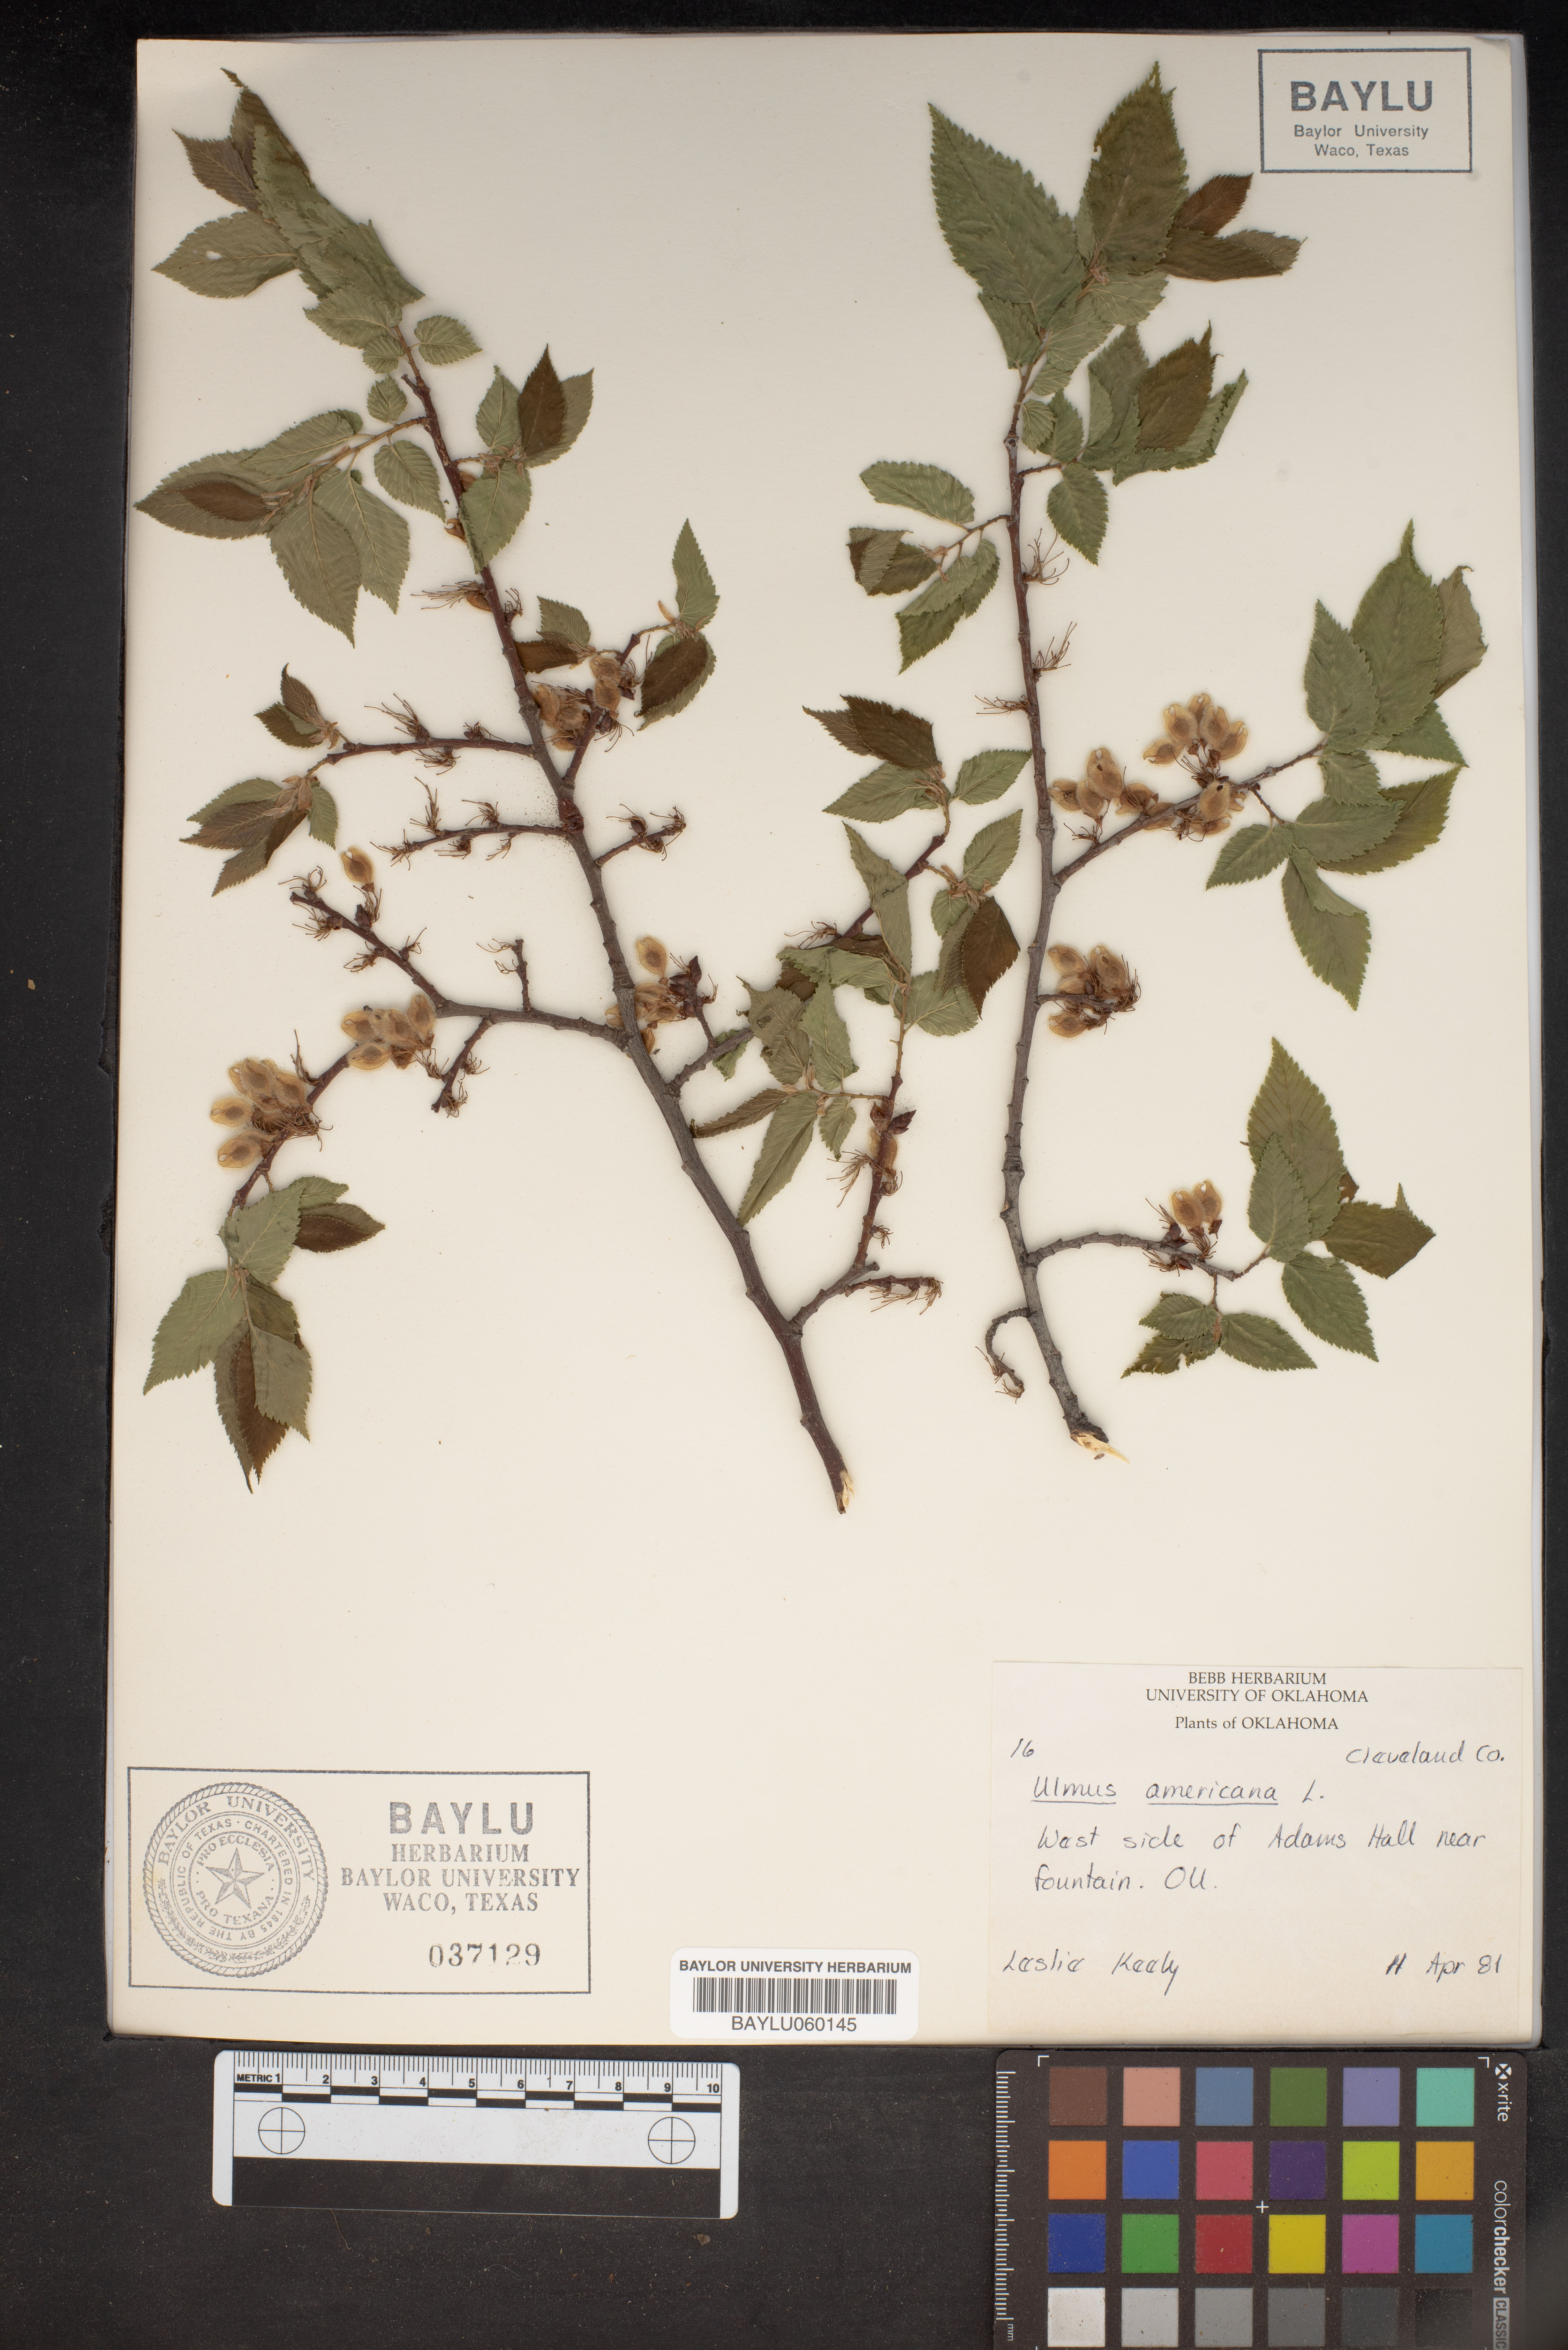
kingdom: Plantae
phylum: Tracheophyta
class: Magnoliopsida
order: Rosales
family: Ulmaceae
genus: Ulmus
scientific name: Ulmus americana
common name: American elm
